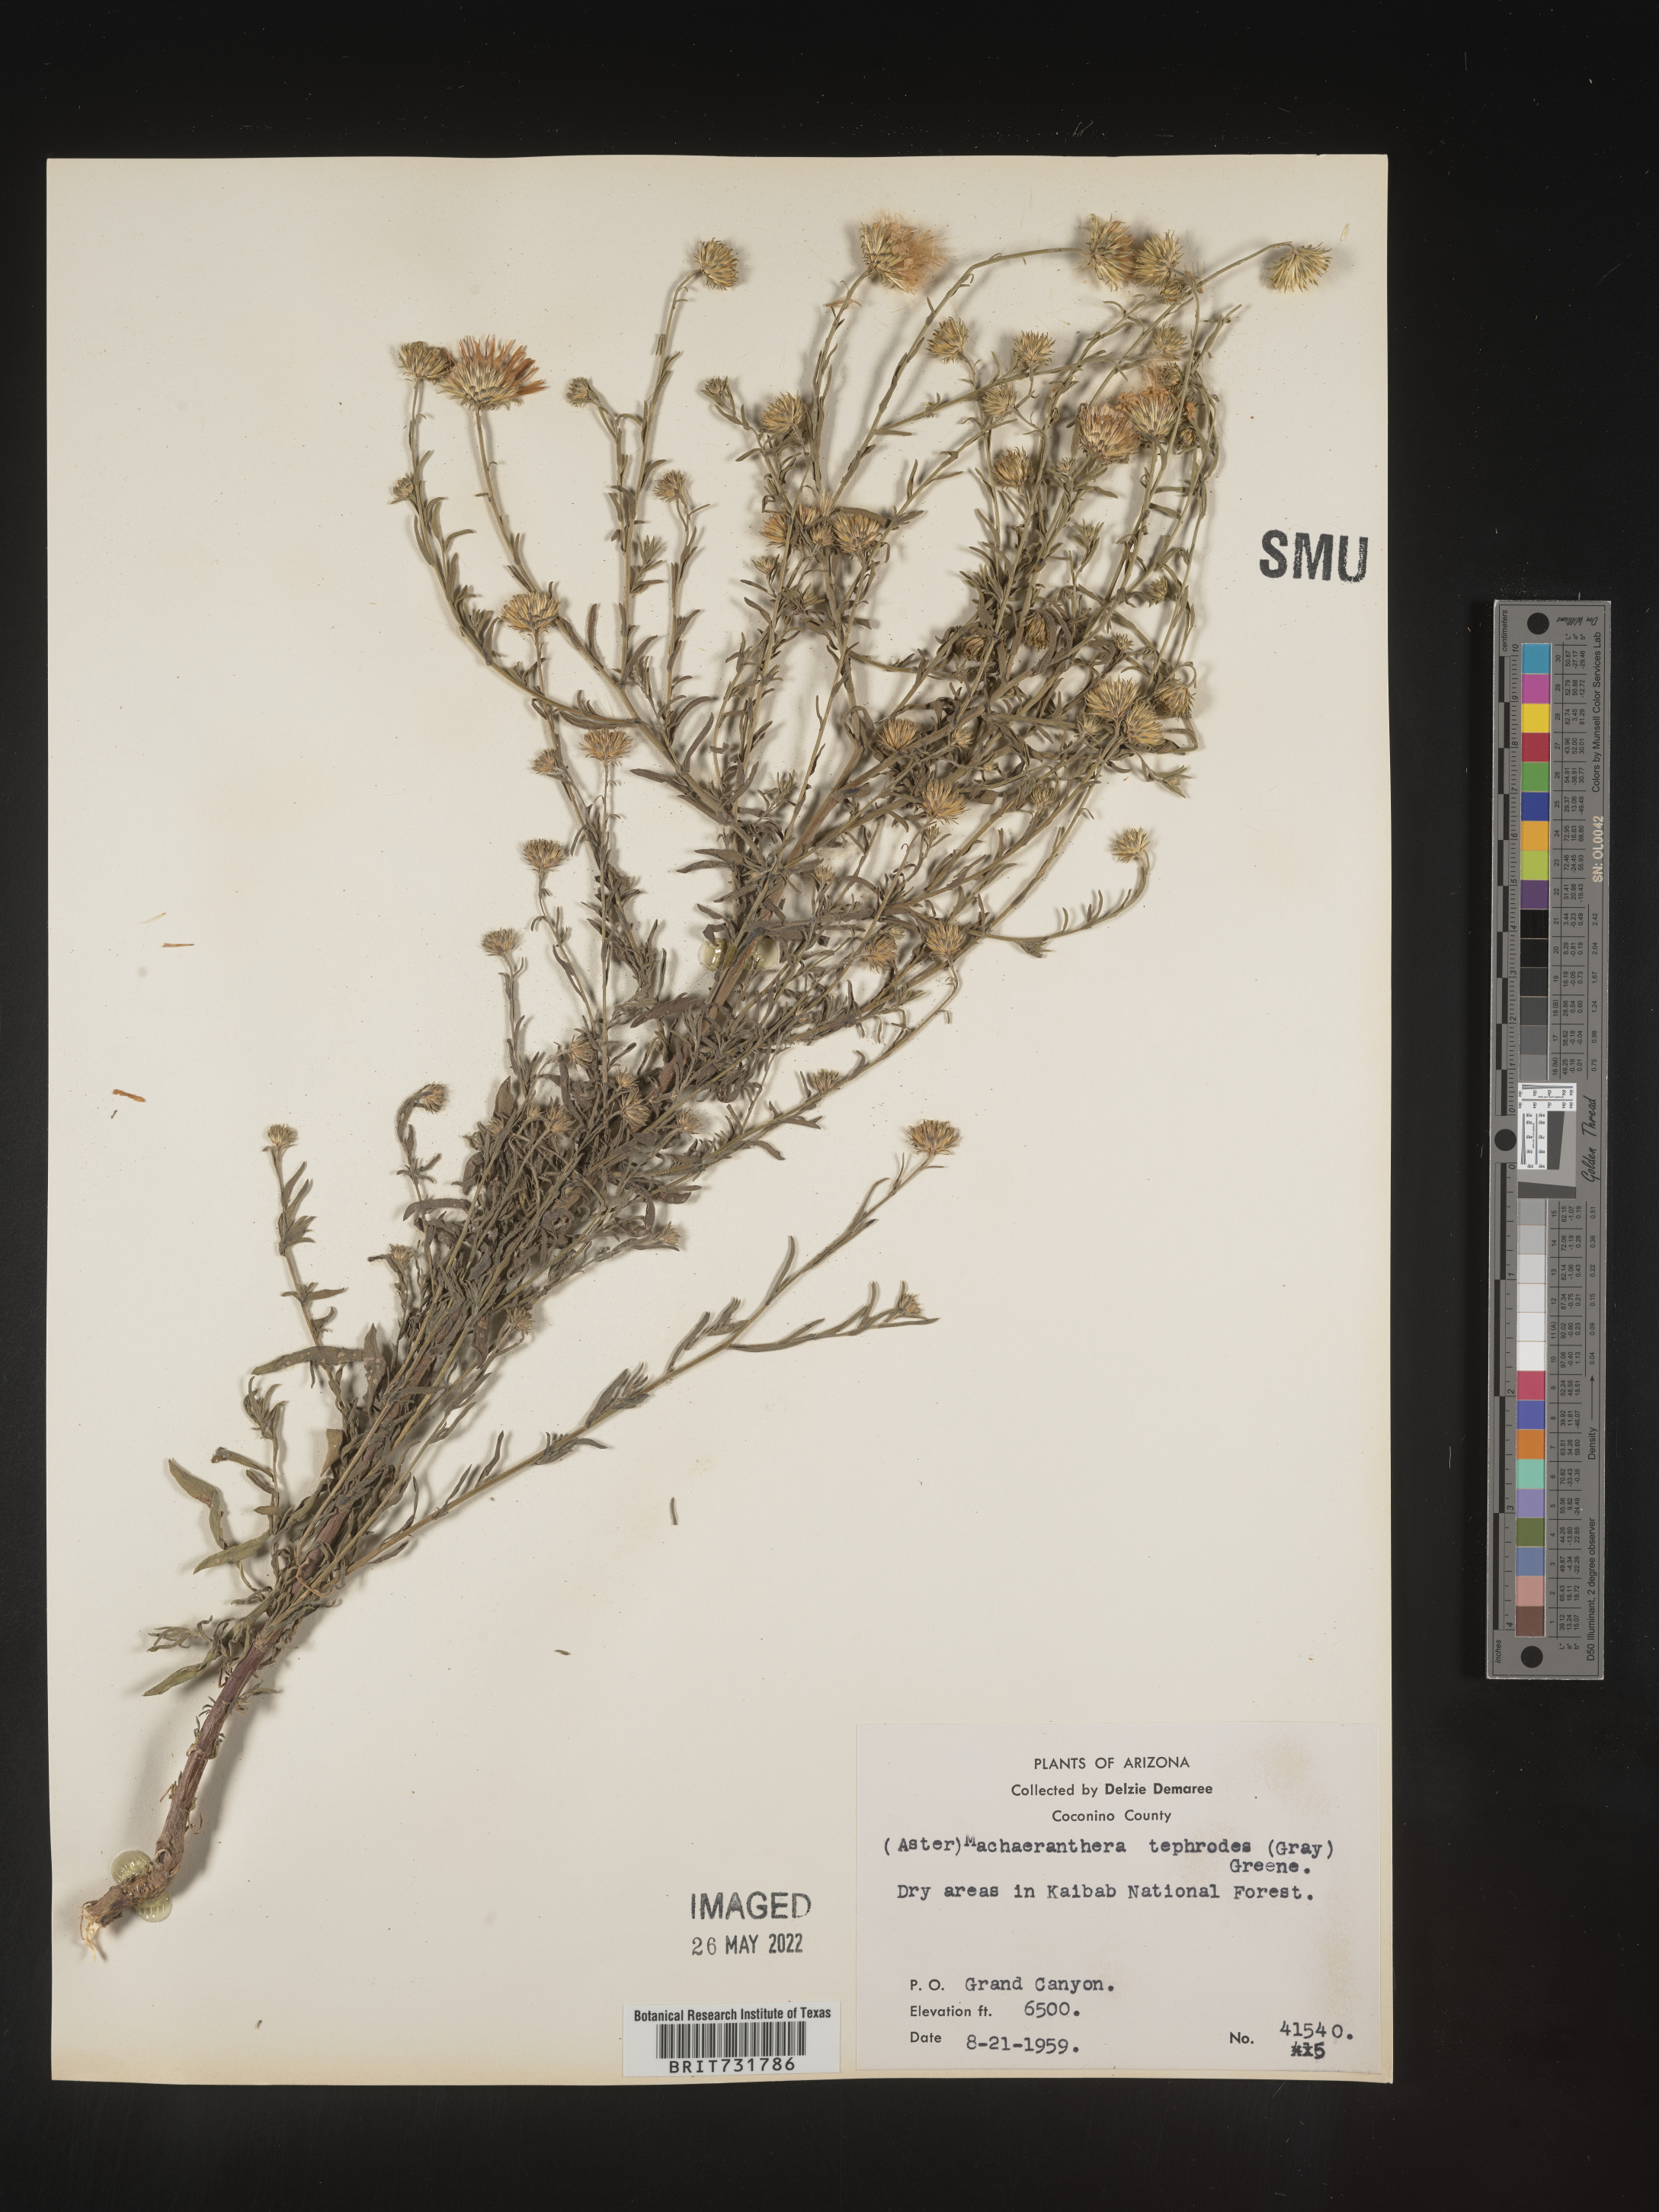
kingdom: Plantae
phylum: Tracheophyta
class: Magnoliopsida
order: Asterales
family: Asteraceae
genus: Machaeranthera
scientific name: Machaeranthera
